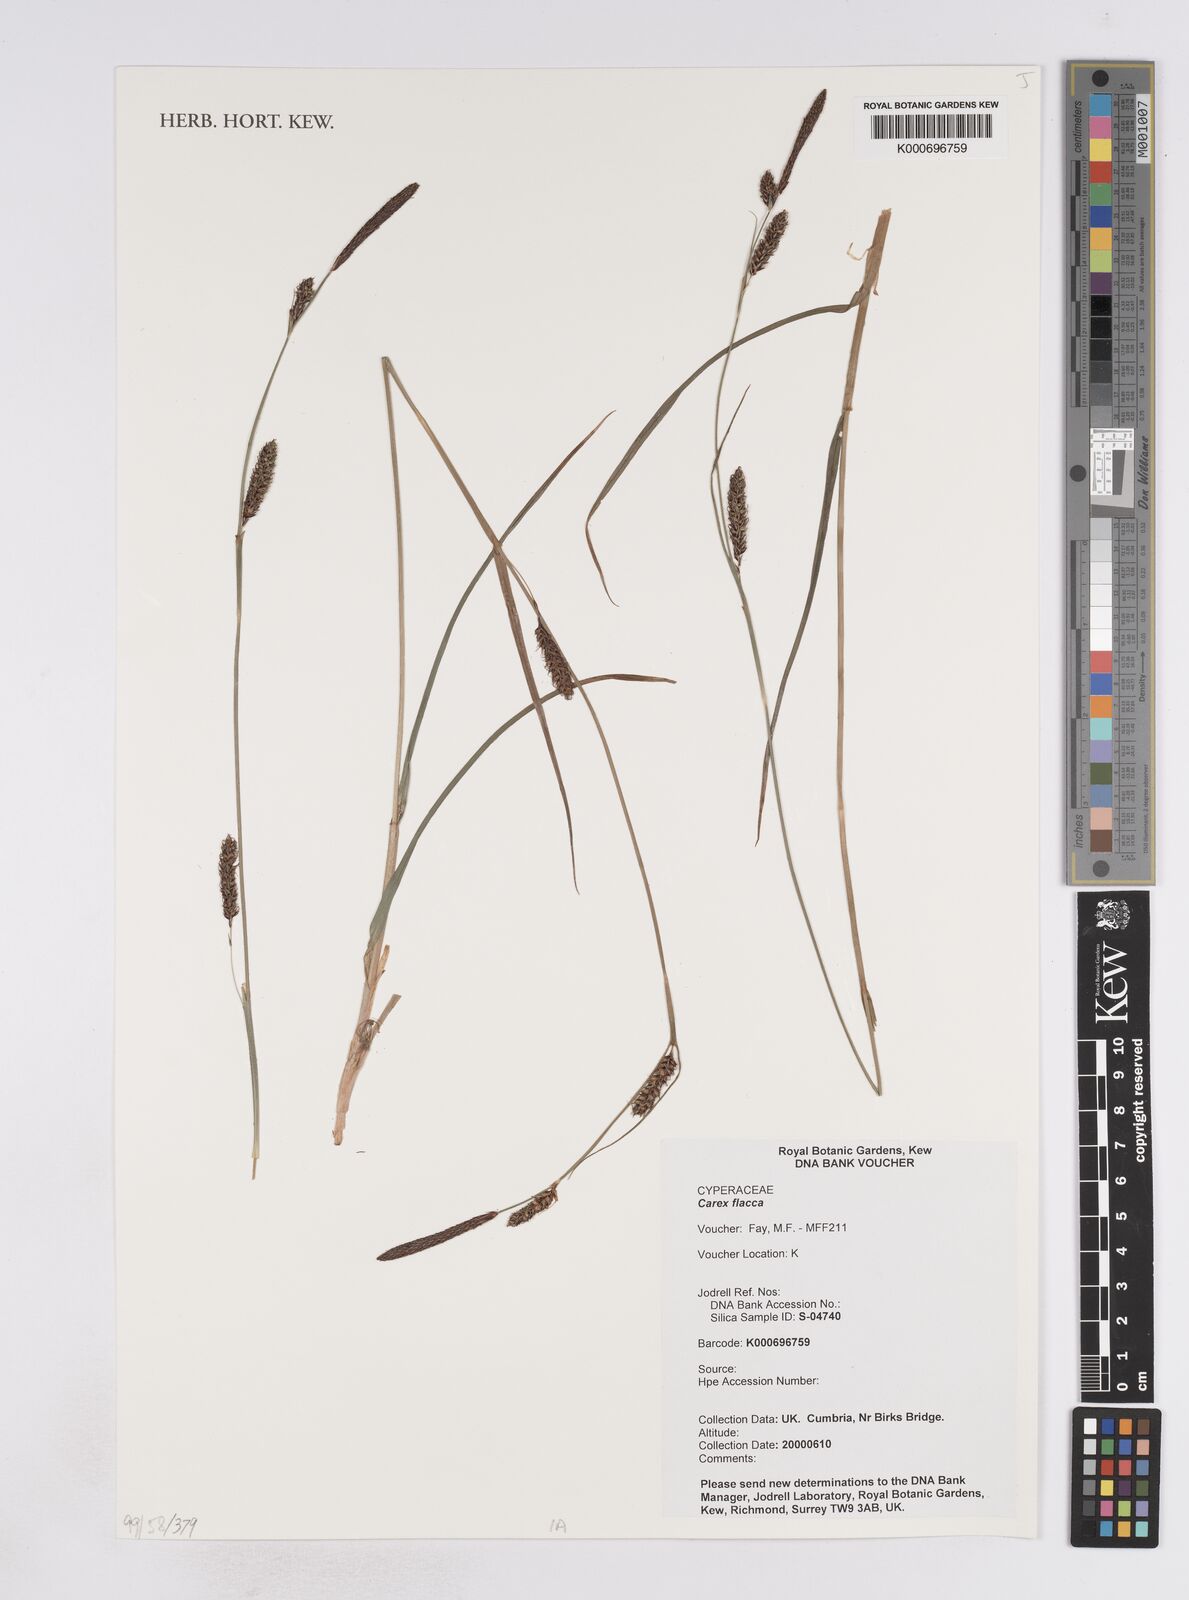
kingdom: Plantae
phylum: Tracheophyta
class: Liliopsida
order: Poales
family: Cyperaceae
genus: Carex
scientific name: Carex flacca
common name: Glaucous sedge
